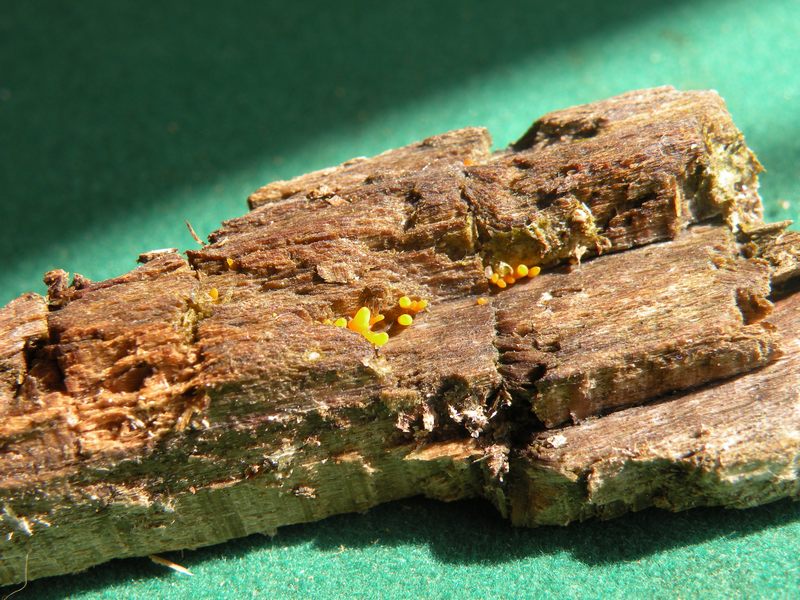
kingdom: Fungi
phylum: Basidiomycota
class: Dacrymycetes
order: Dacrymycetales
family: Dacrymycetaceae
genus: Calocera
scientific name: Calocera cornea
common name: liden guldgaffel
